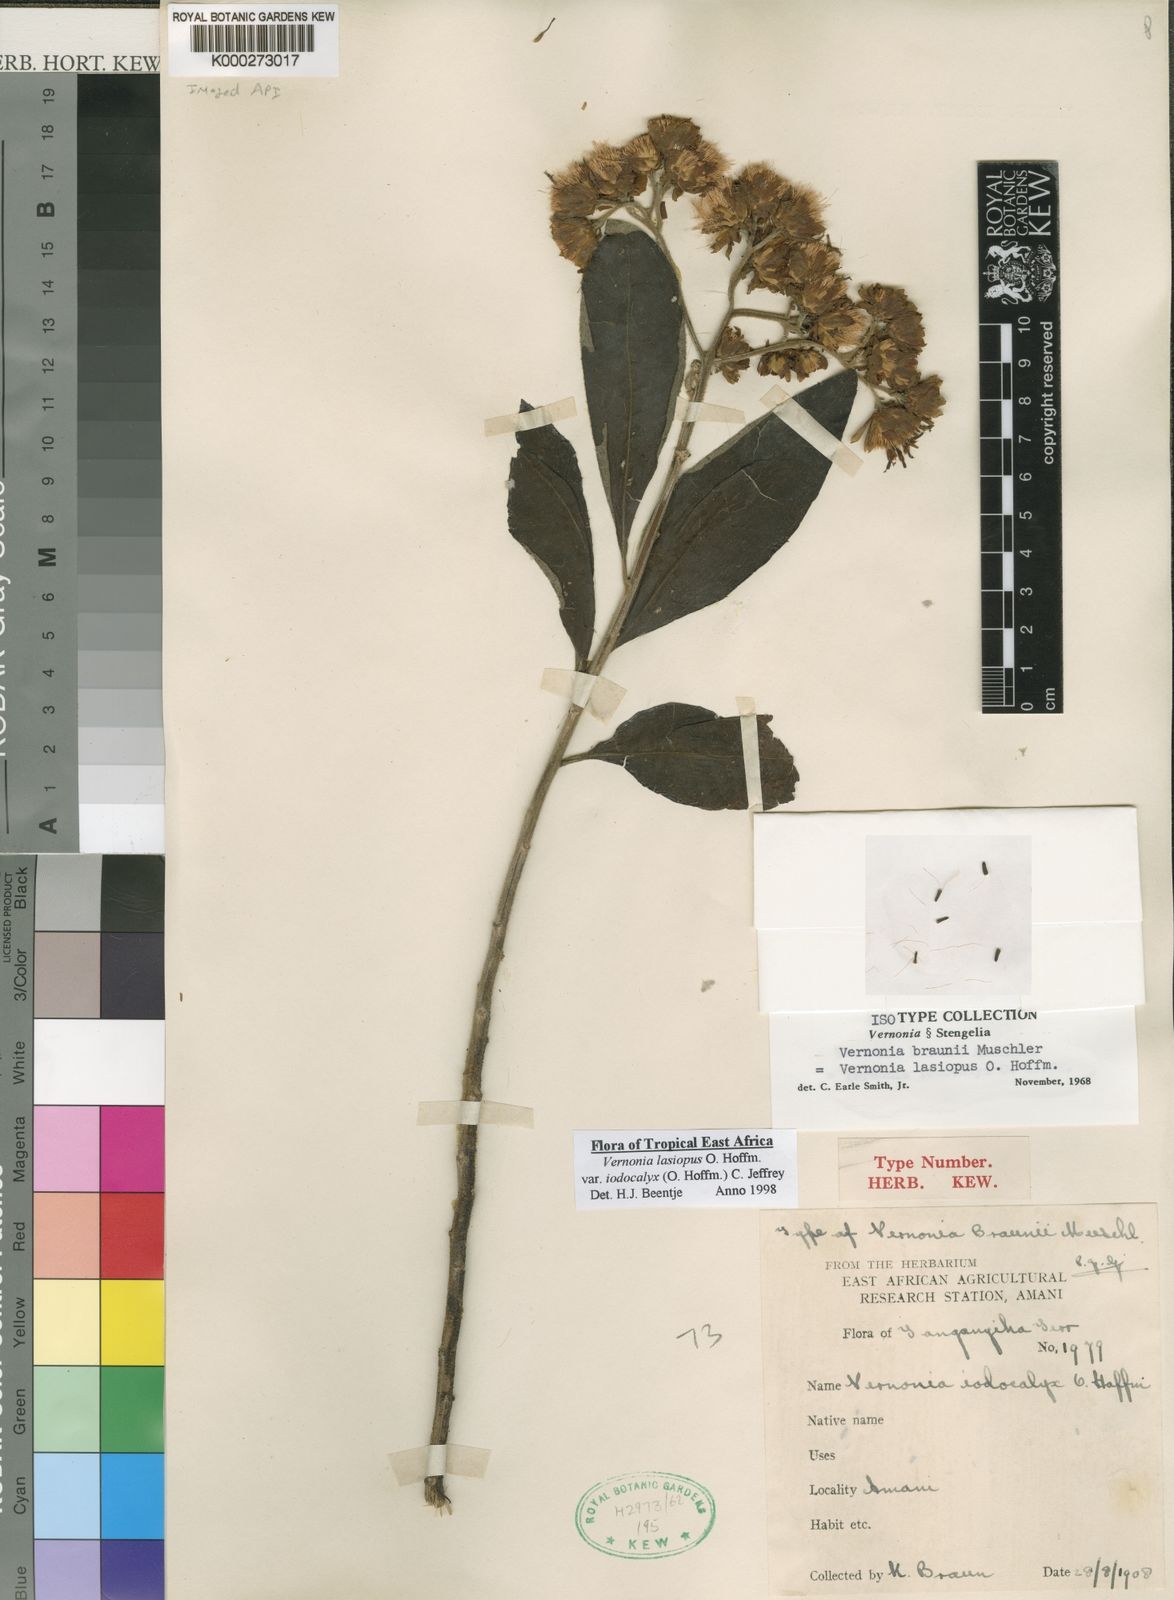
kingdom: Plantae
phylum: Tracheophyta
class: Magnoliopsida
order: Asterales
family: Asteraceae
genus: Baccharoides
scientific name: Baccharoides lasiopus
